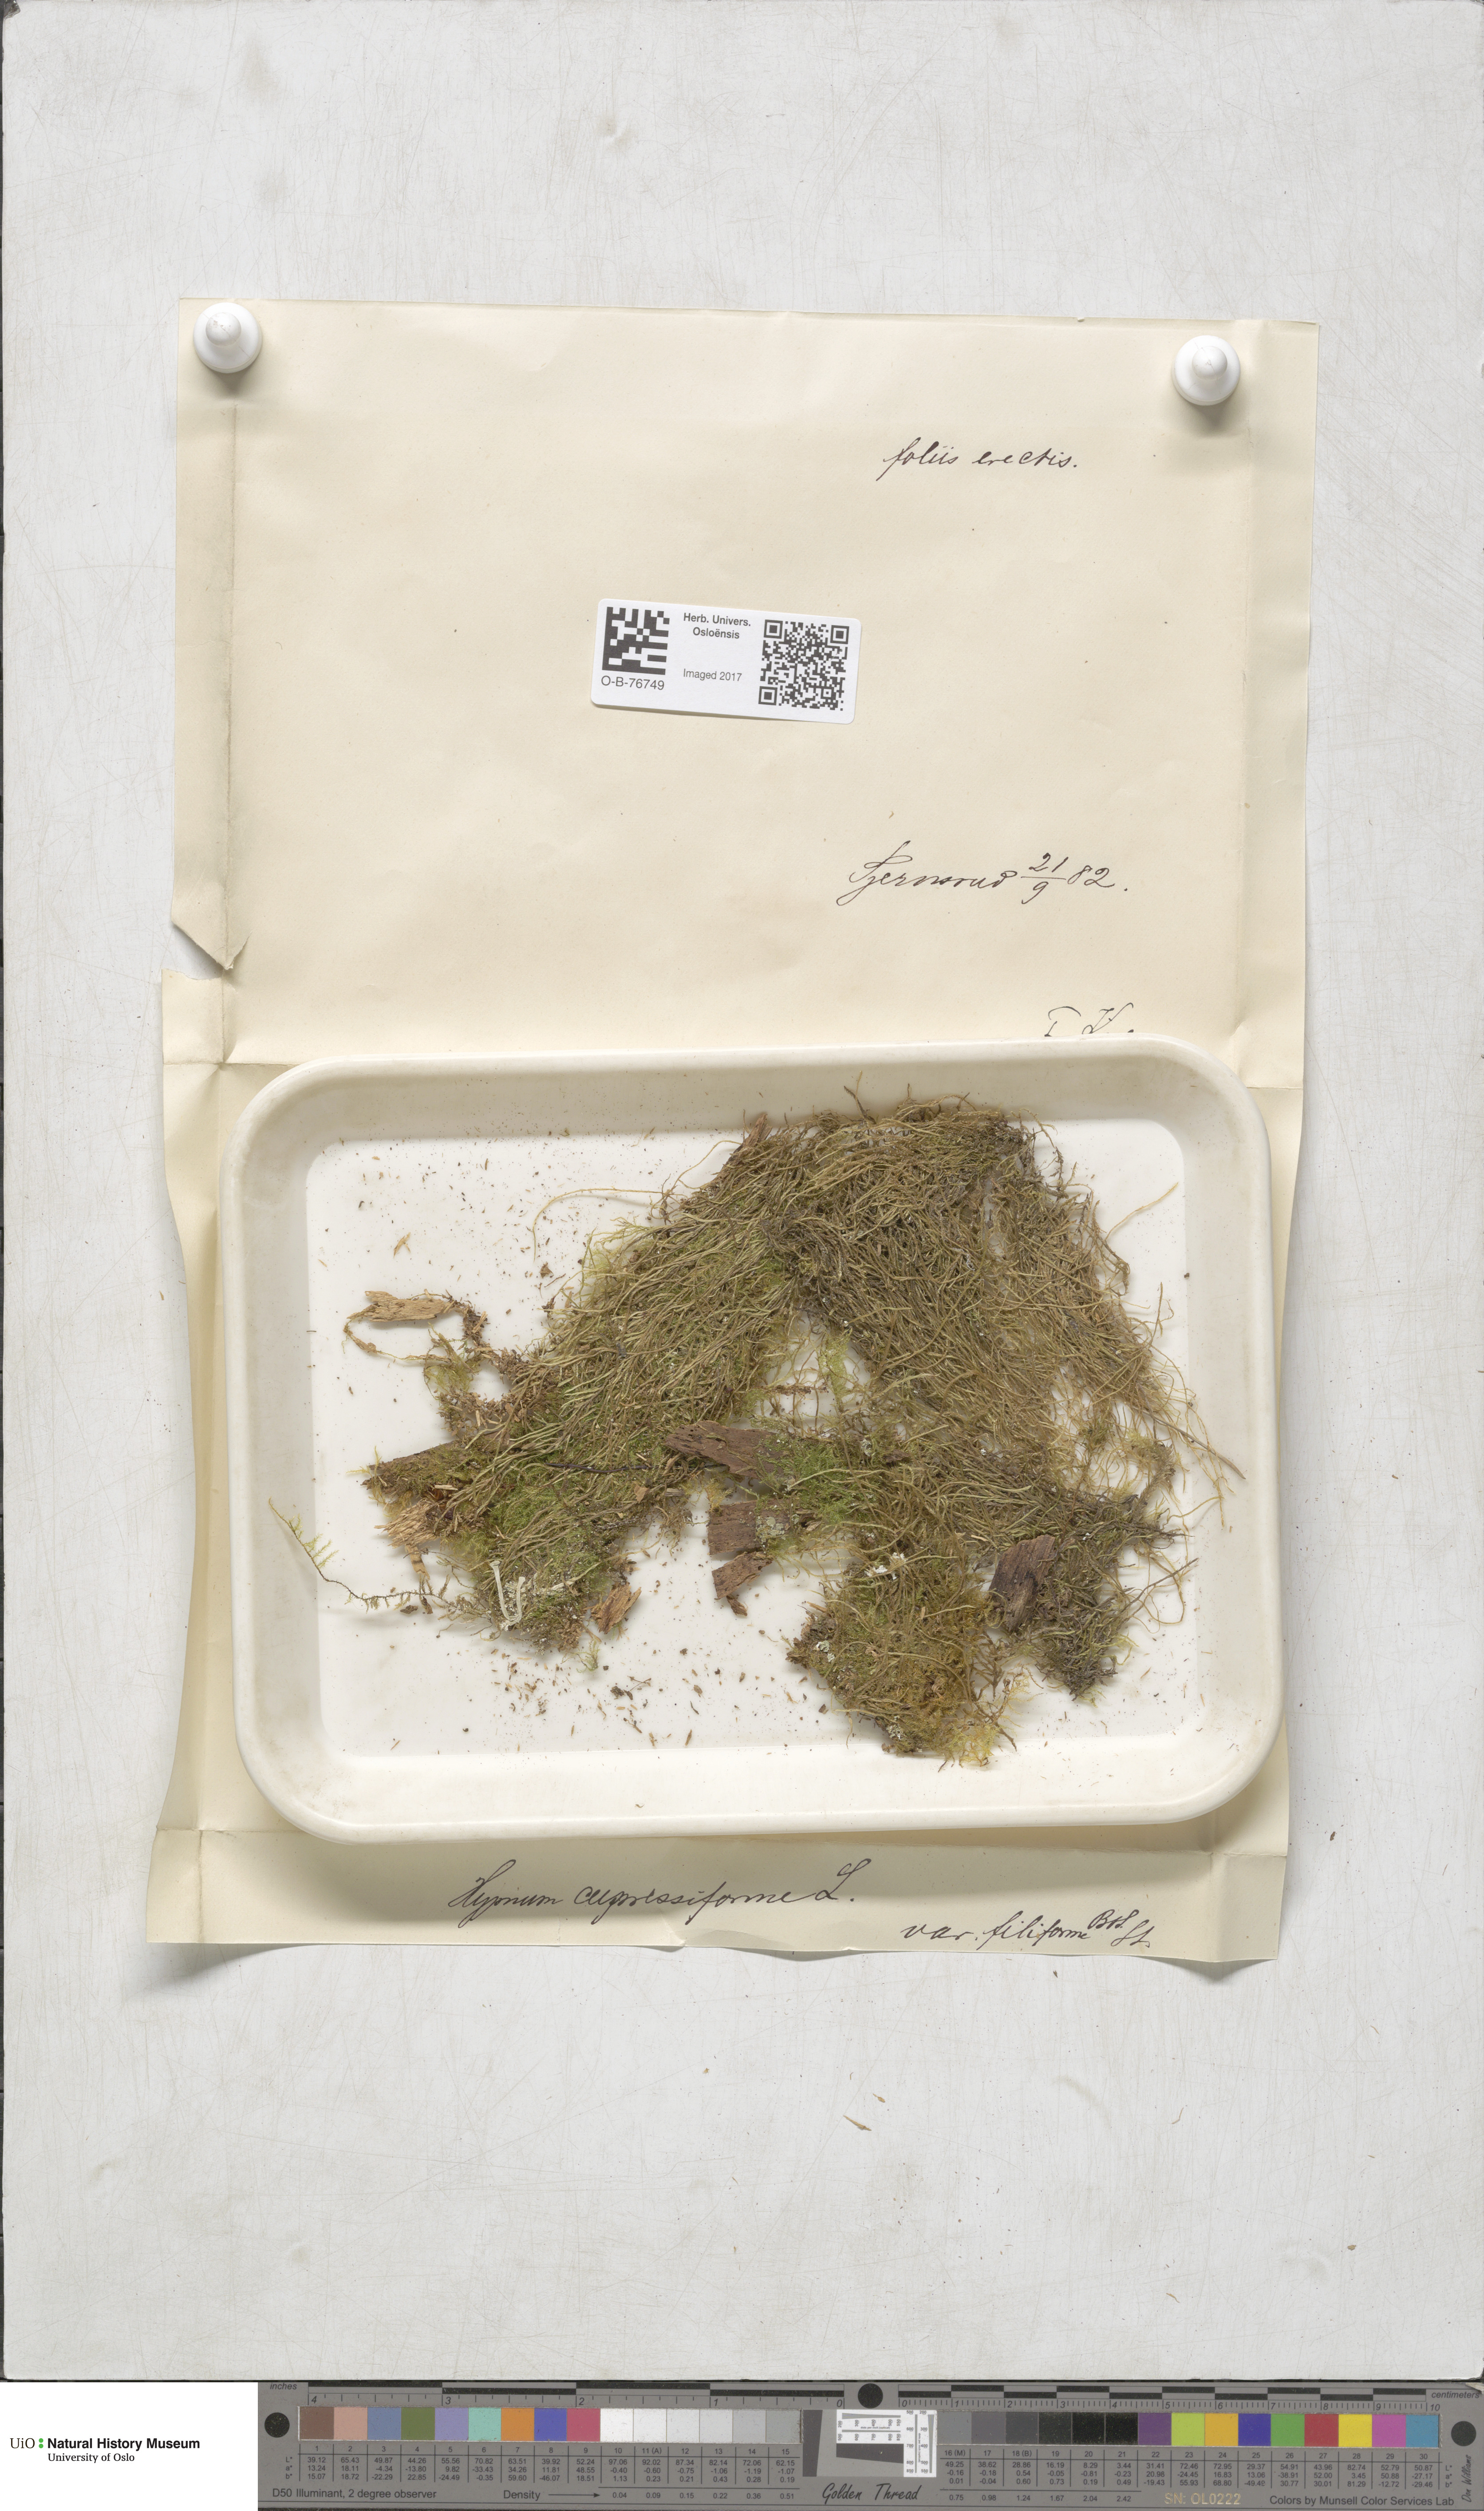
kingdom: Plantae
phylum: Bryophyta
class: Bryopsida
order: Hypnales
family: Hypnaceae
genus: Hypnum
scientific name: Hypnum cupressiforme
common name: Cypress-leaved plait-moss
